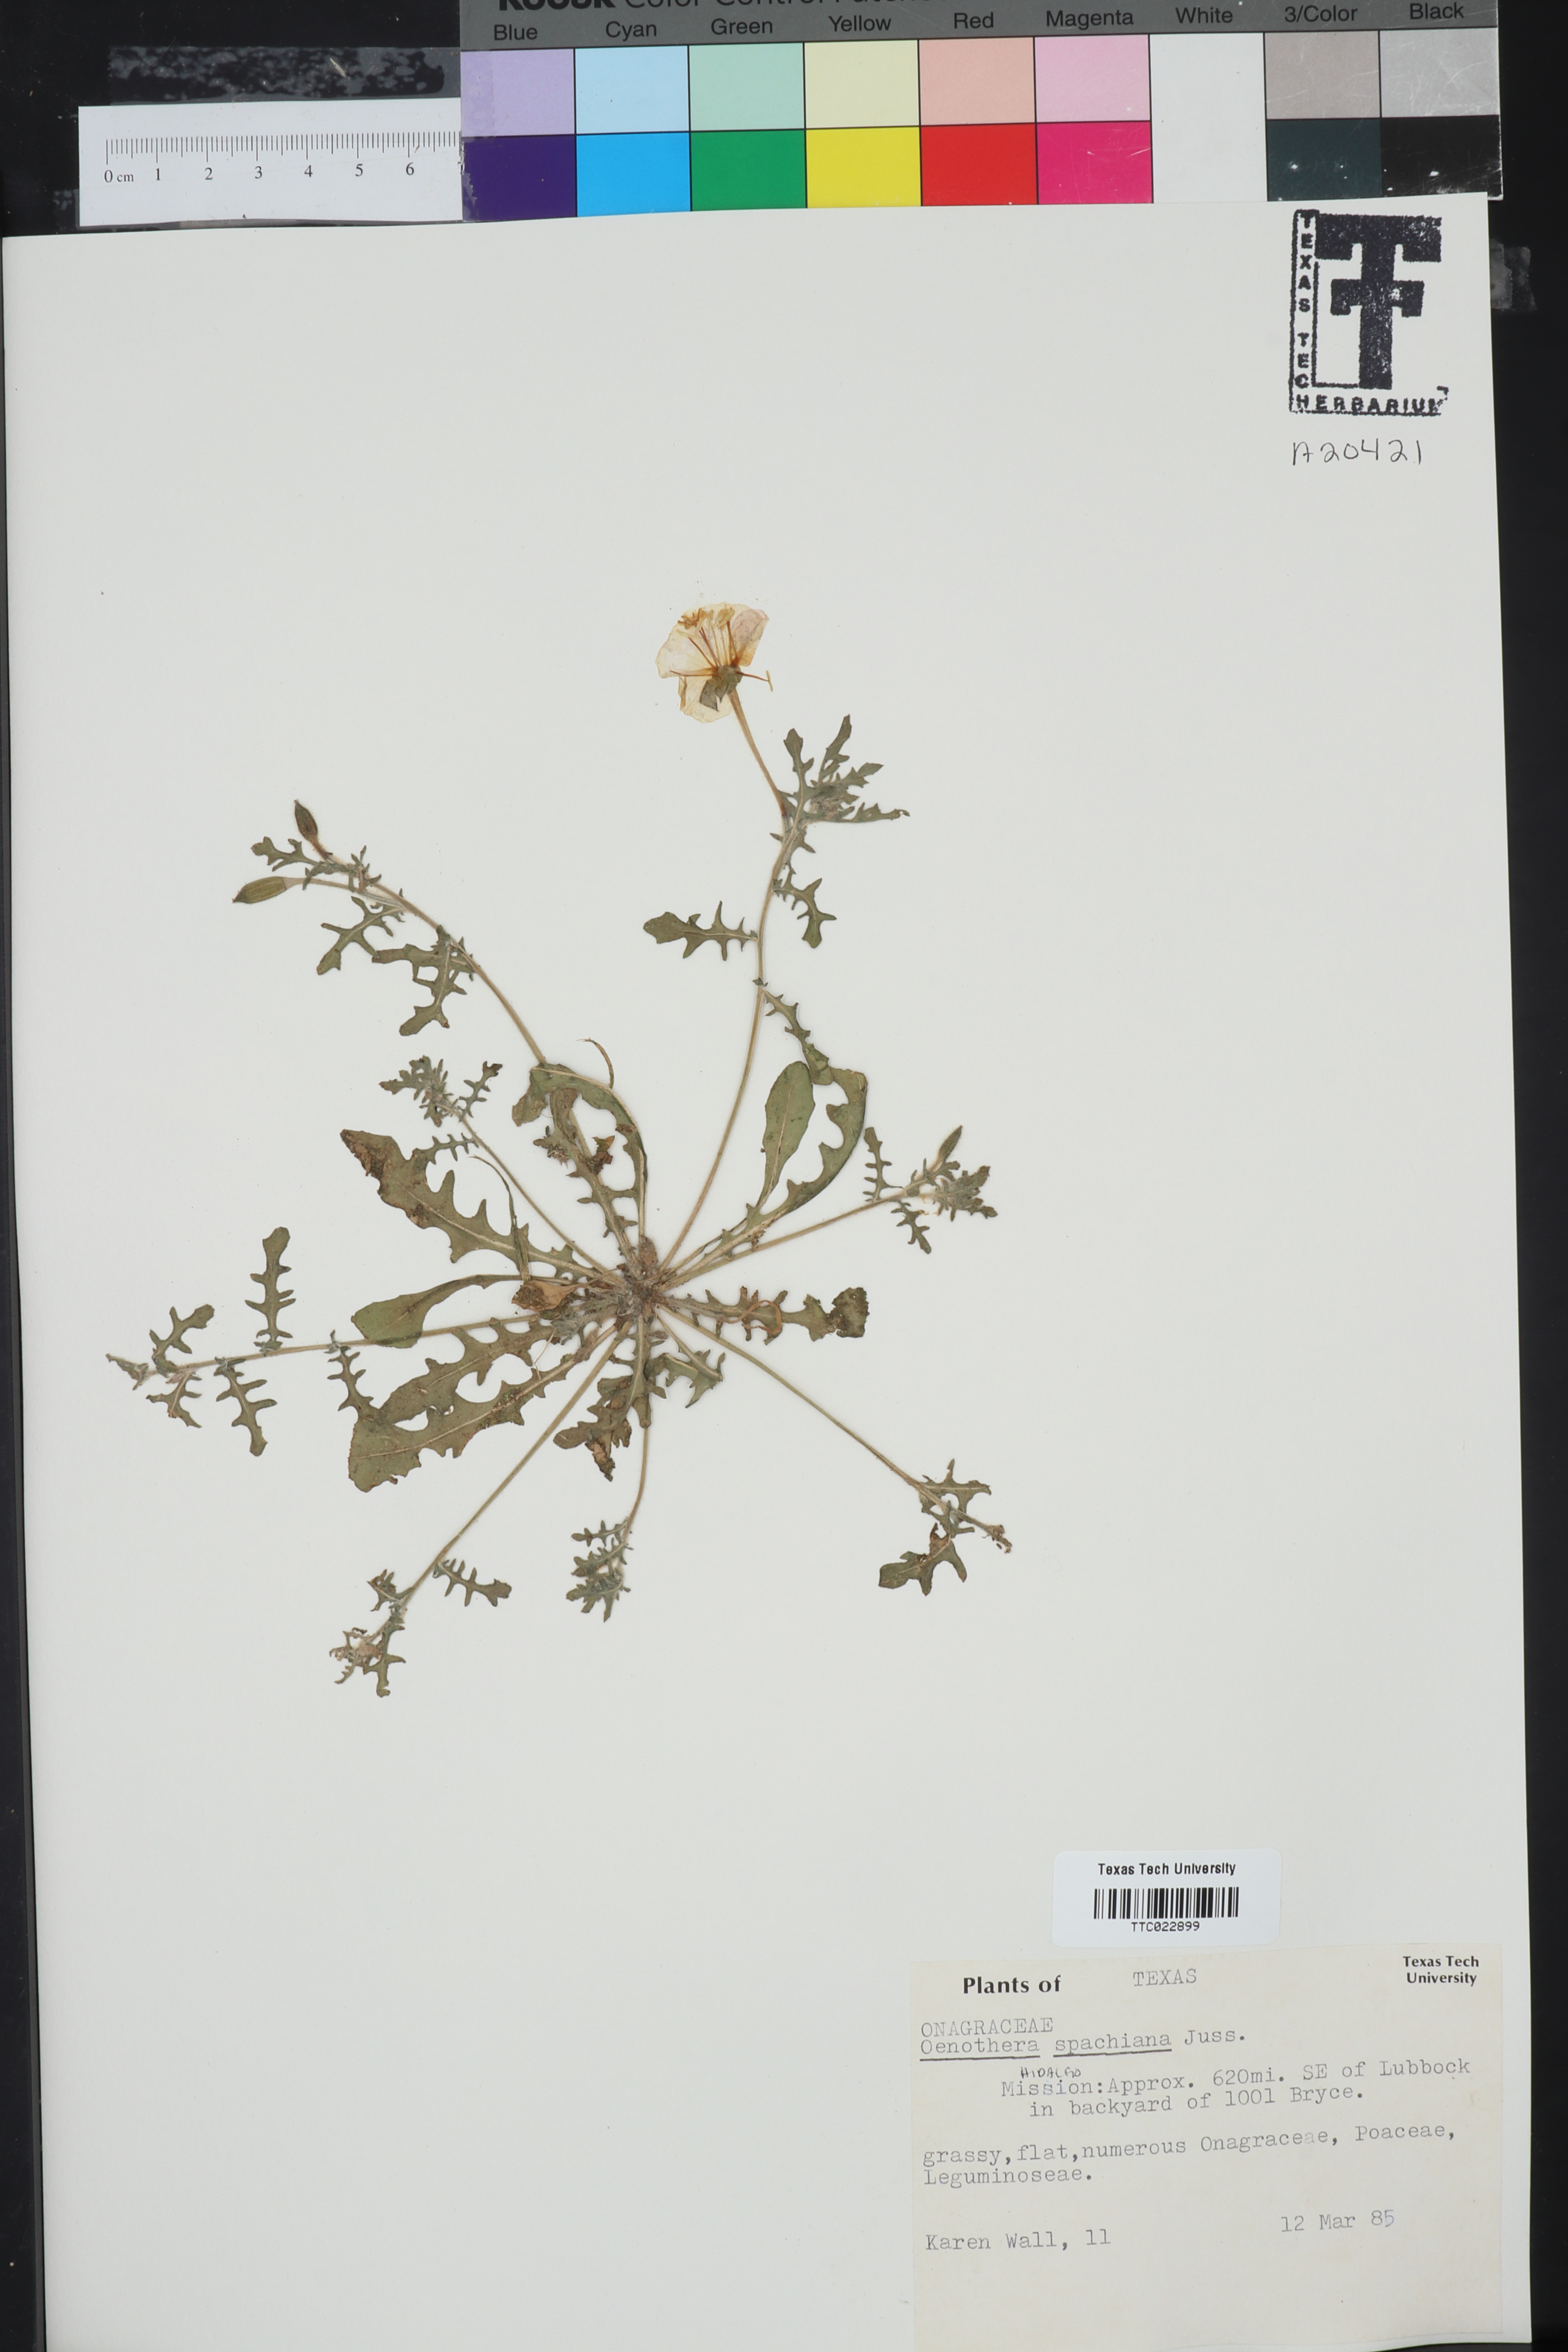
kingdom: Plantae
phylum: Tracheophyta
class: Magnoliopsida
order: Myrtales
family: Onagraceae
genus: Oenothera
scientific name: Oenothera spachiana
